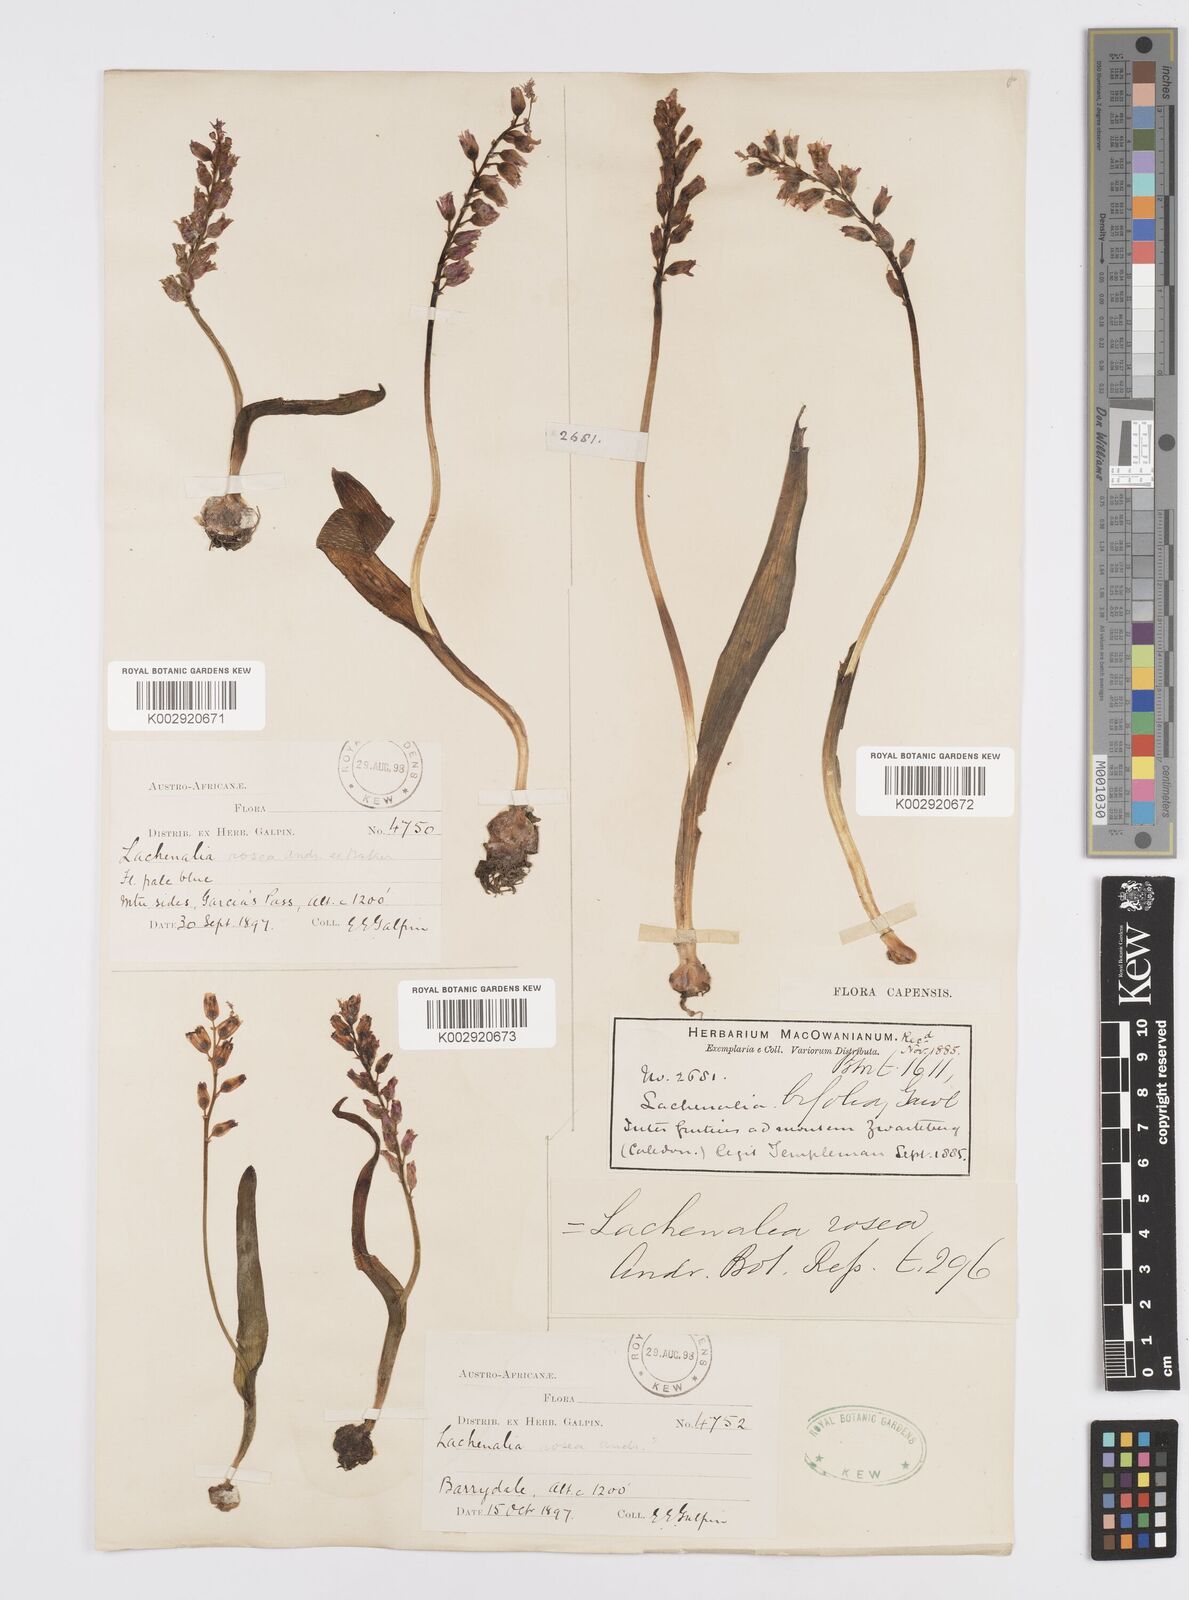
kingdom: Plantae
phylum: Tracheophyta
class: Liliopsida
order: Asparagales
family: Asparagaceae
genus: Lachenalia
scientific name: Lachenalia rosea
